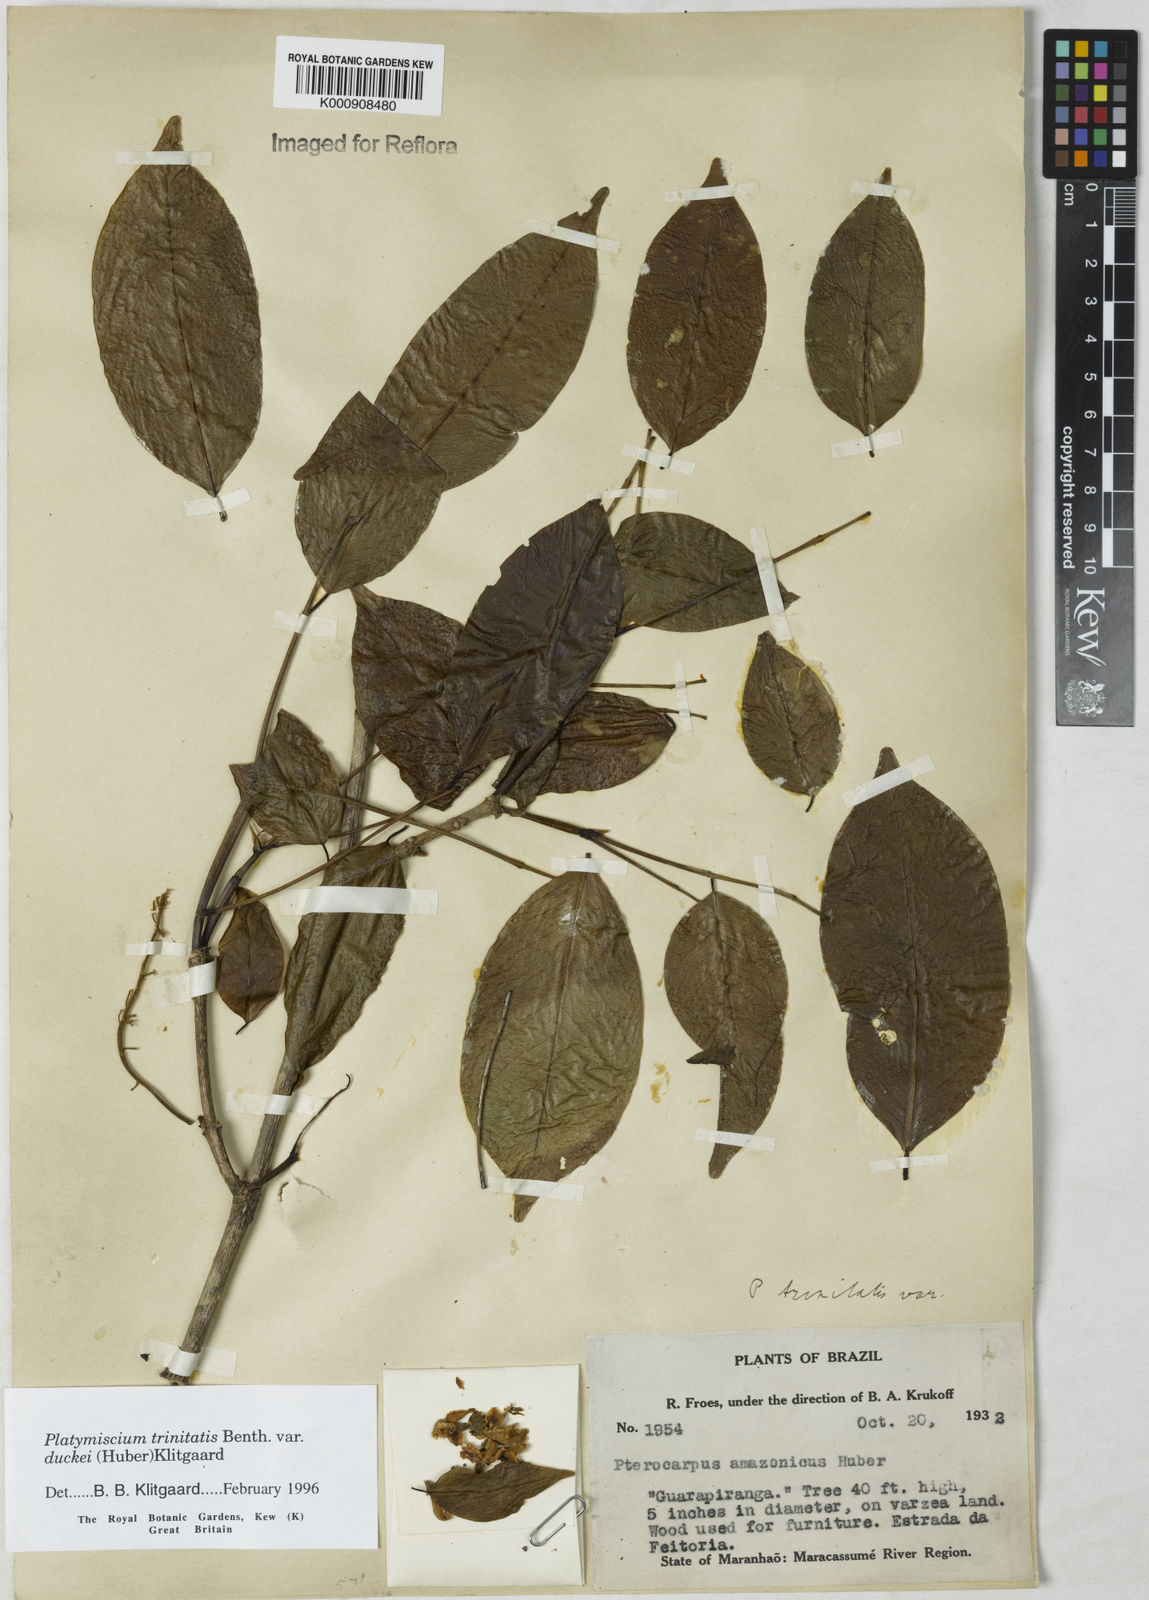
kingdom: Plantae
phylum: Tracheophyta
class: Magnoliopsida
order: Fabales
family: Fabaceae
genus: Platymiscium
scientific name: Platymiscium trinitatis
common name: Trinidad macawood
